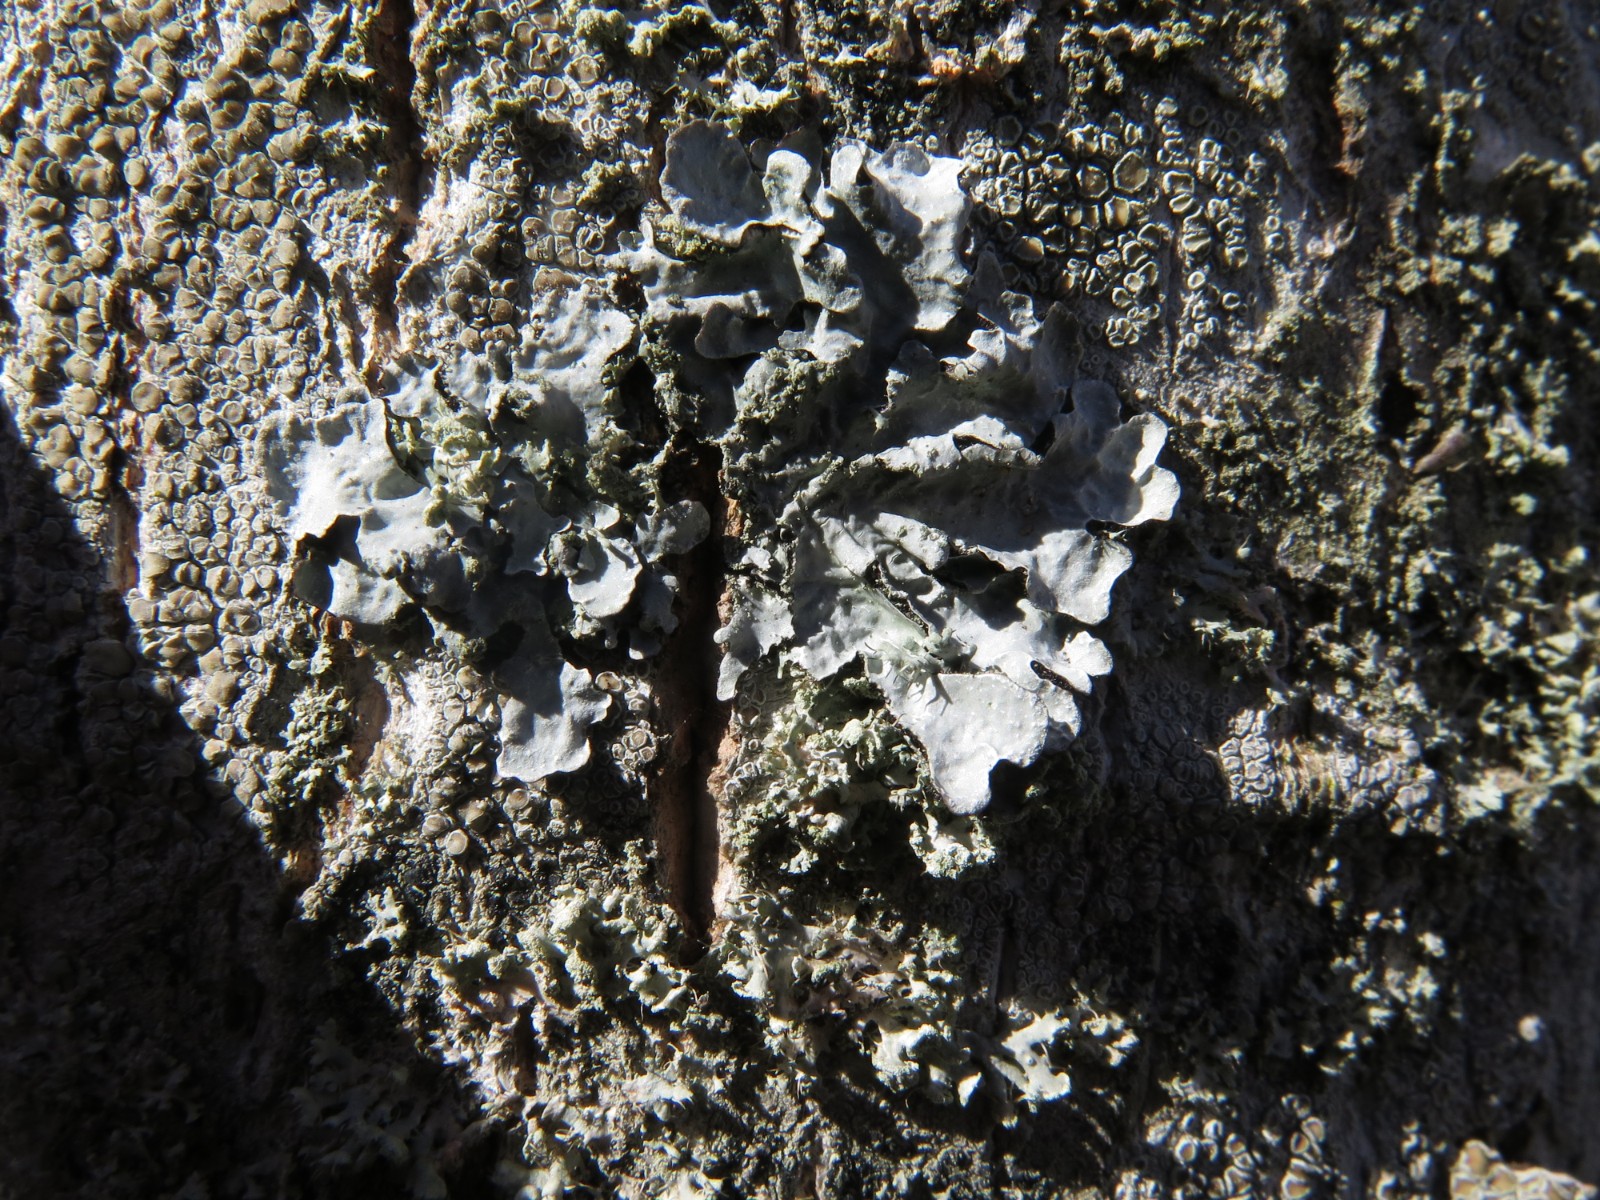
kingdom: Fungi
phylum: Ascomycota
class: Lecanoromycetes
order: Lecanorales
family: Parmeliaceae
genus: Parmelia
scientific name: Parmelia sulcata
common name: rynket skållav
